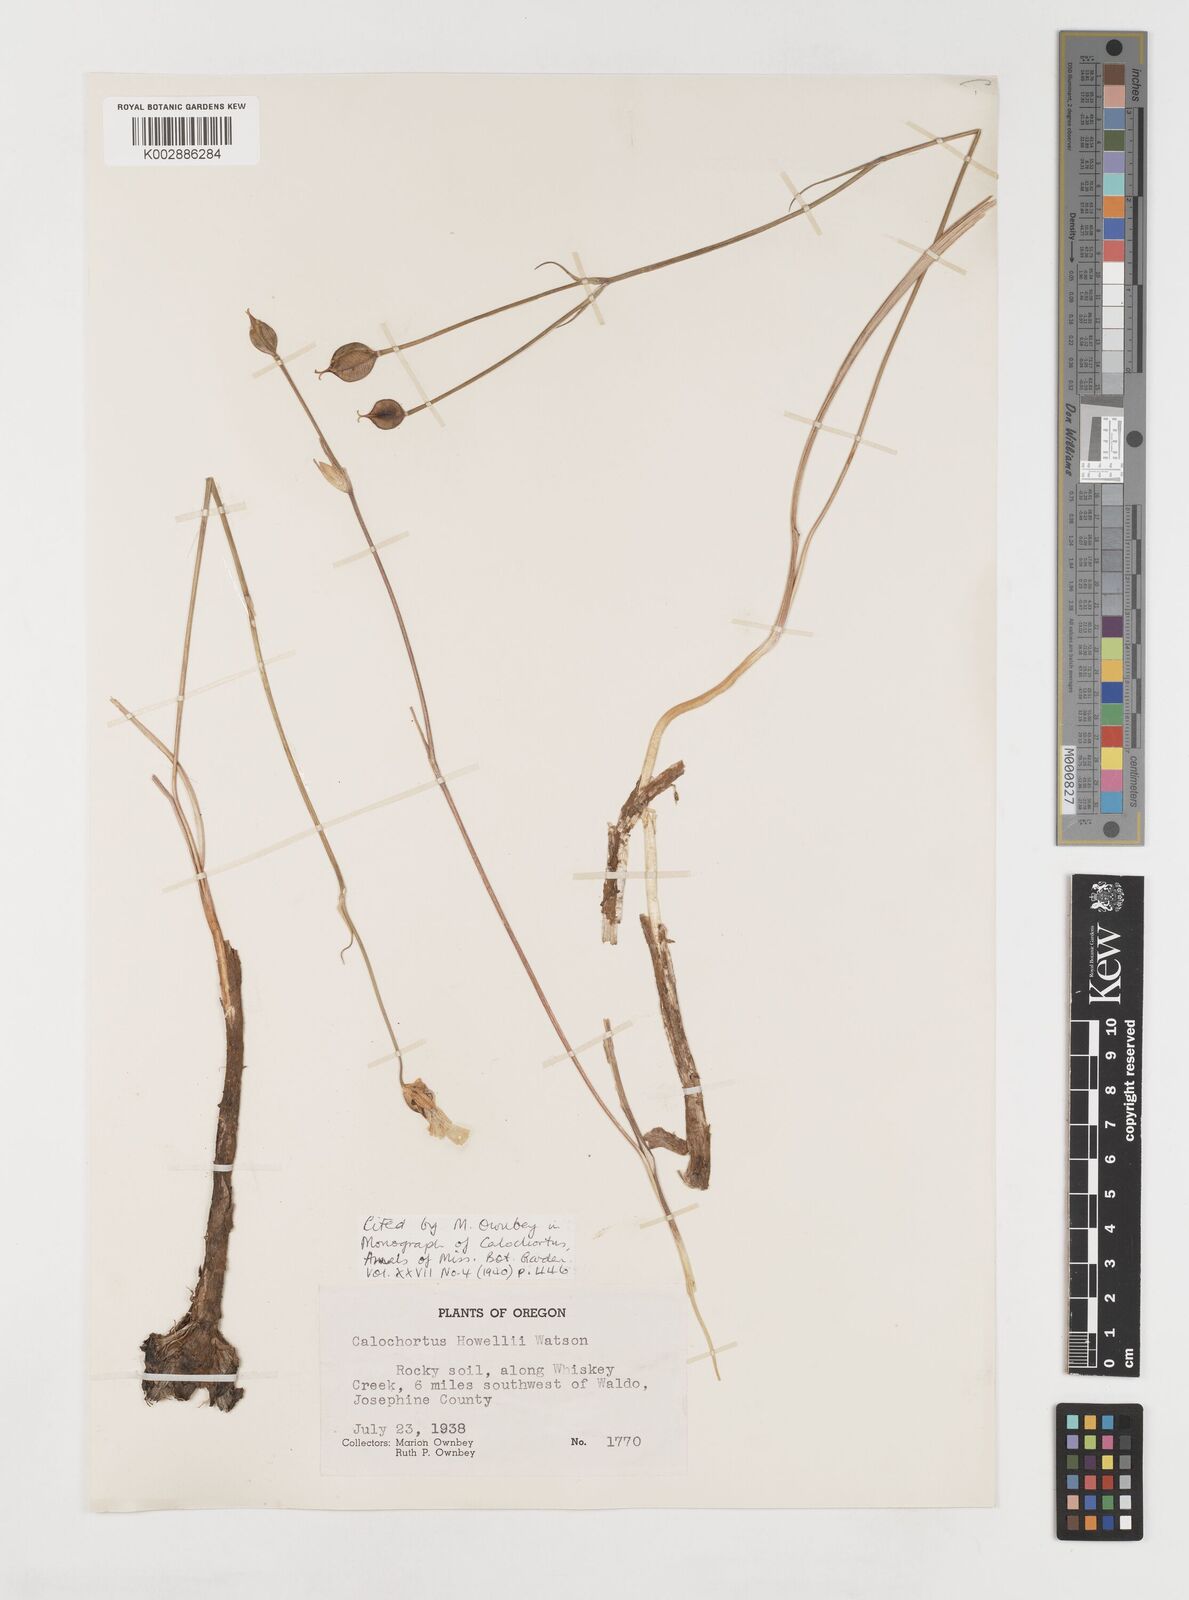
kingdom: Plantae
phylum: Tracheophyta
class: Liliopsida
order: Liliales
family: Liliaceae
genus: Calochortus
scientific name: Calochortus howellii
